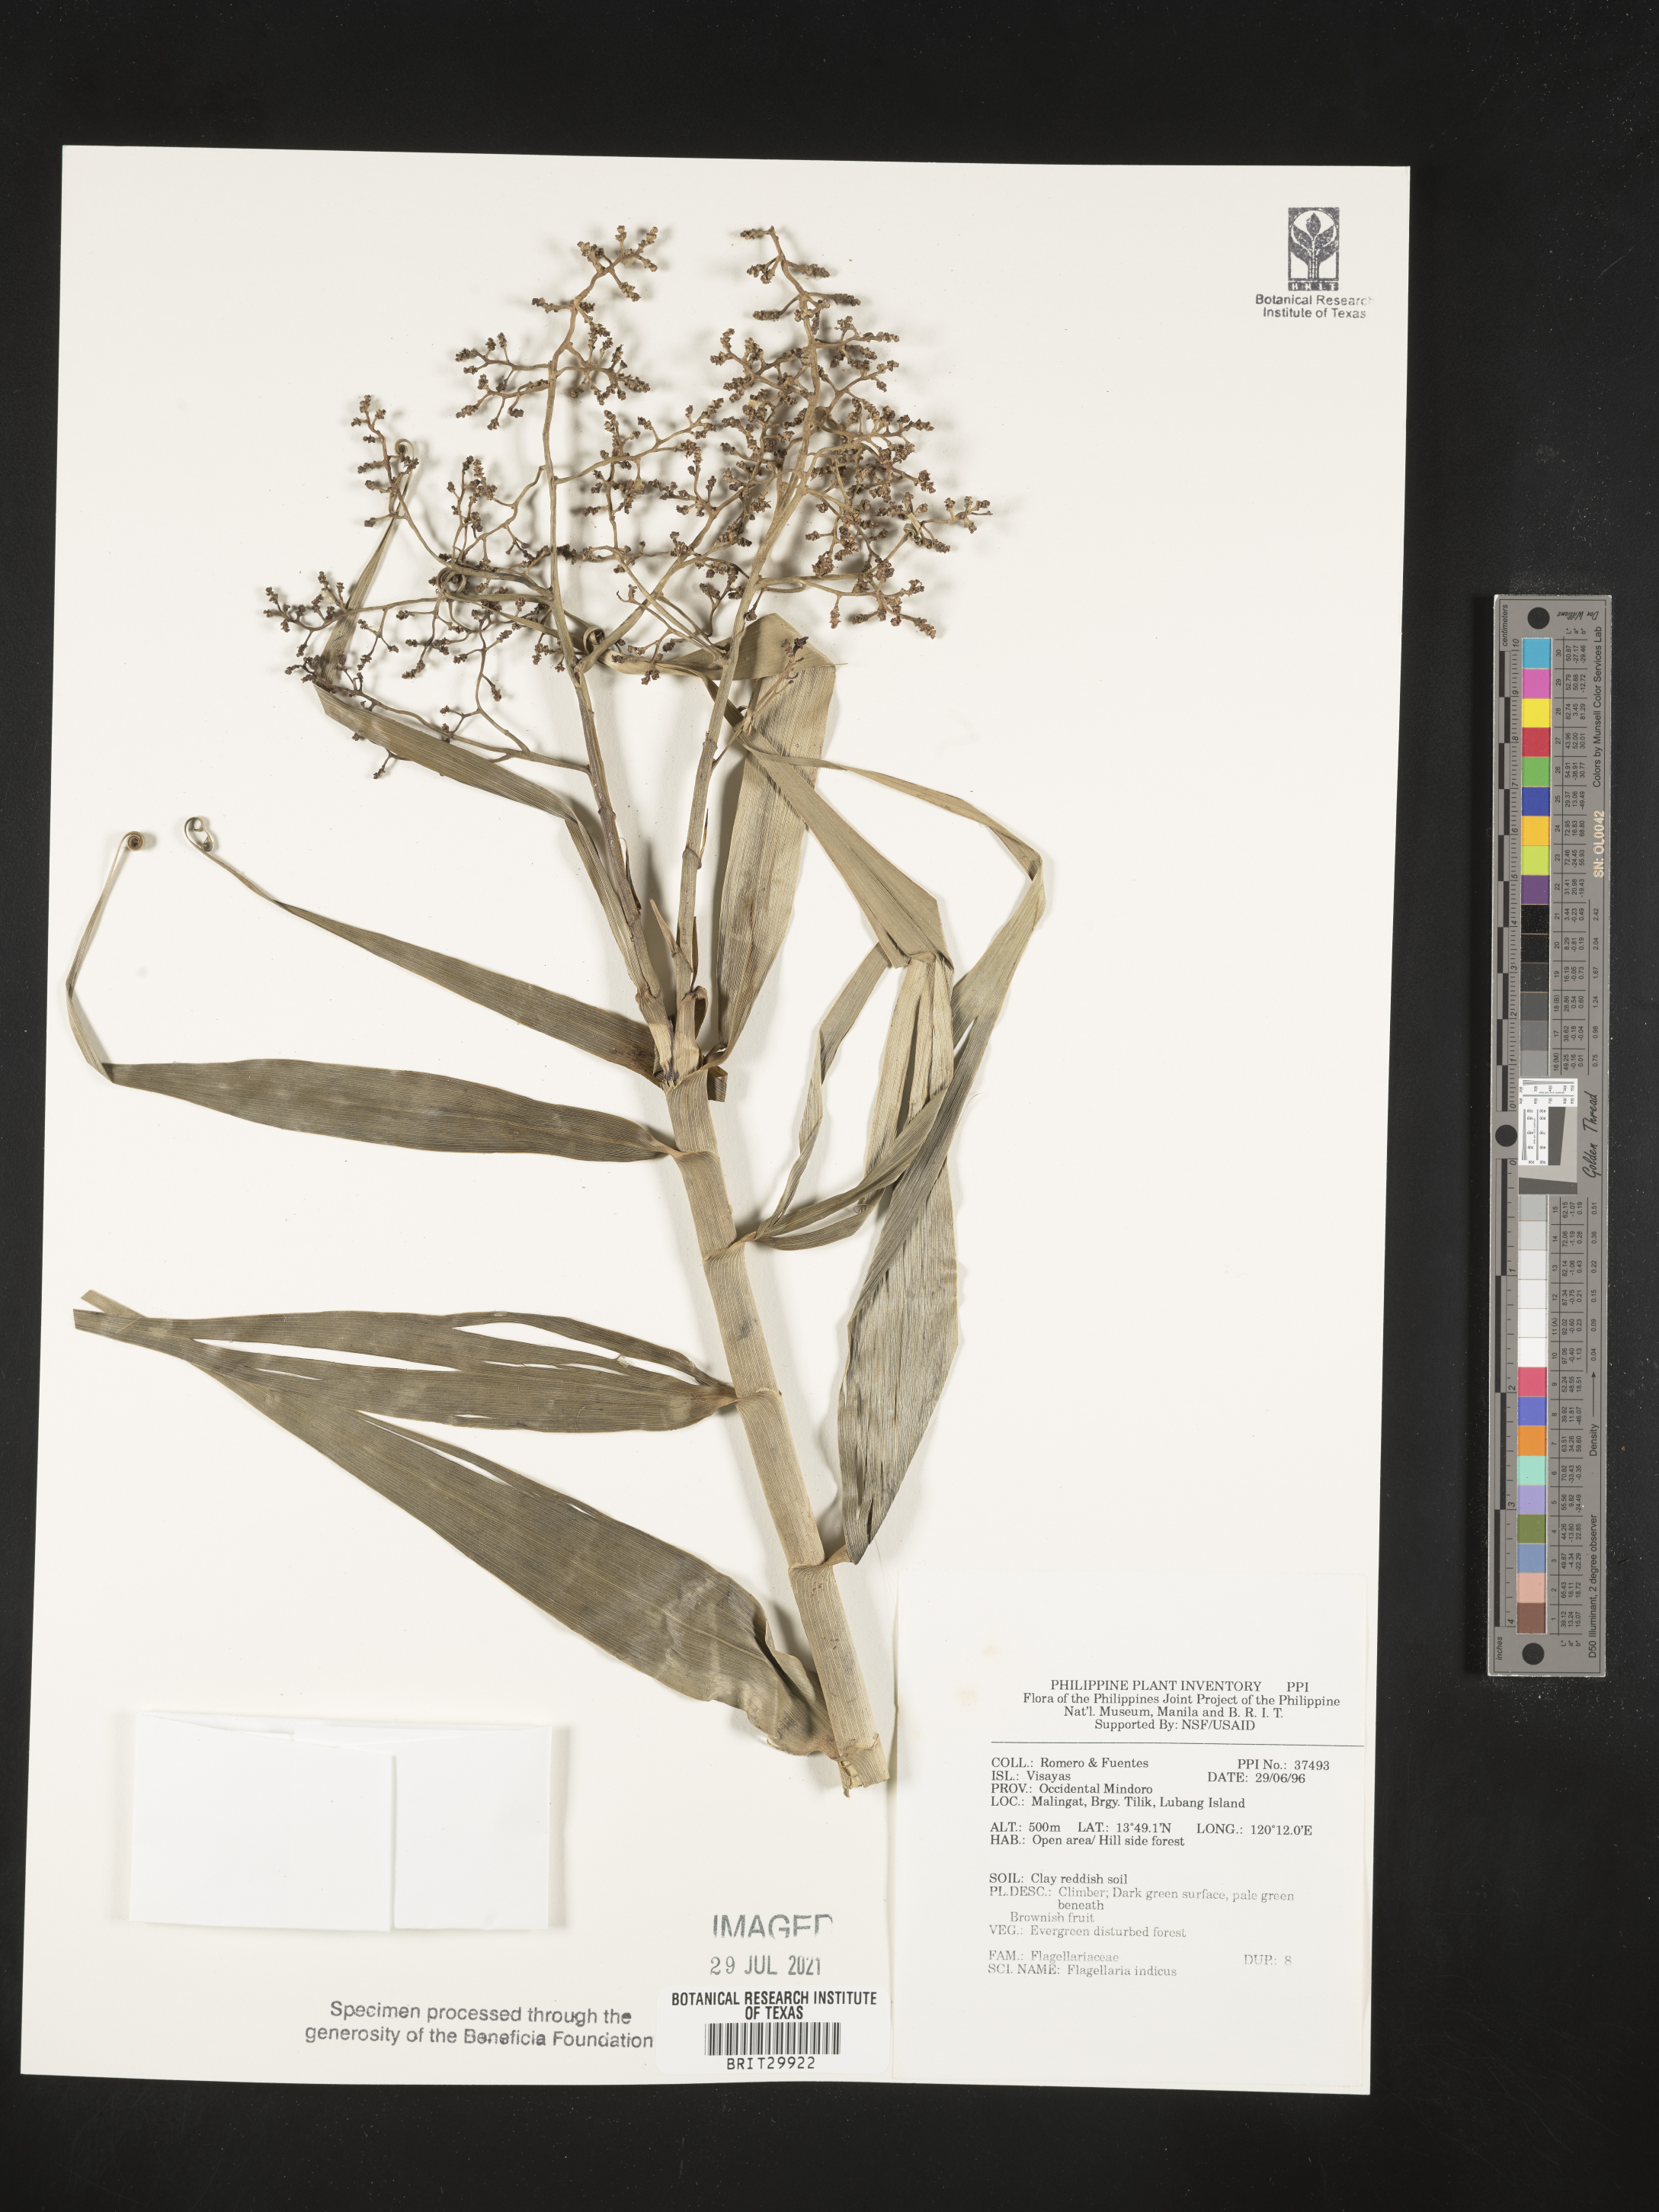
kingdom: Plantae
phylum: Tracheophyta
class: Liliopsida
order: Poales
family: Flagellariaceae
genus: Flagellaria
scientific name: Flagellaria indica
